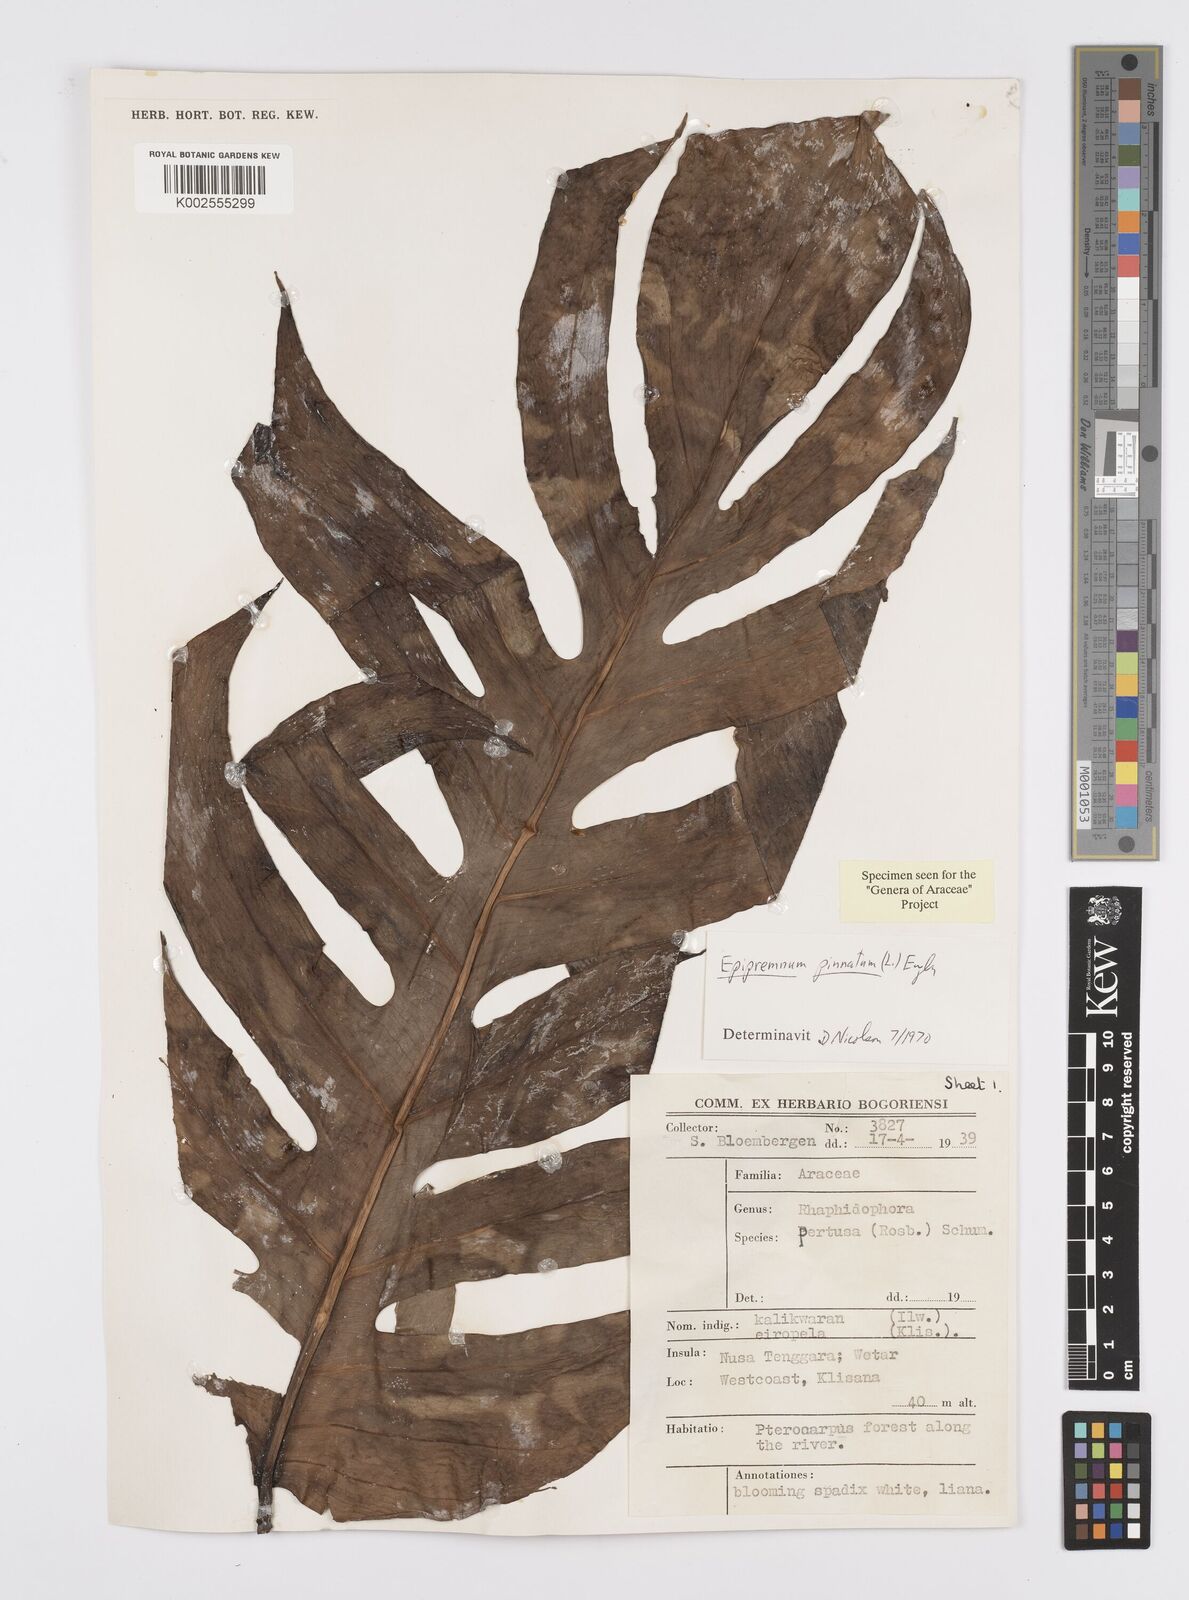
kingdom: Plantae
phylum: Tracheophyta
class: Liliopsida
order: Alismatales
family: Araceae
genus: Epipremnum
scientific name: Epipremnum pinnatum
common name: Centipede tongavine
